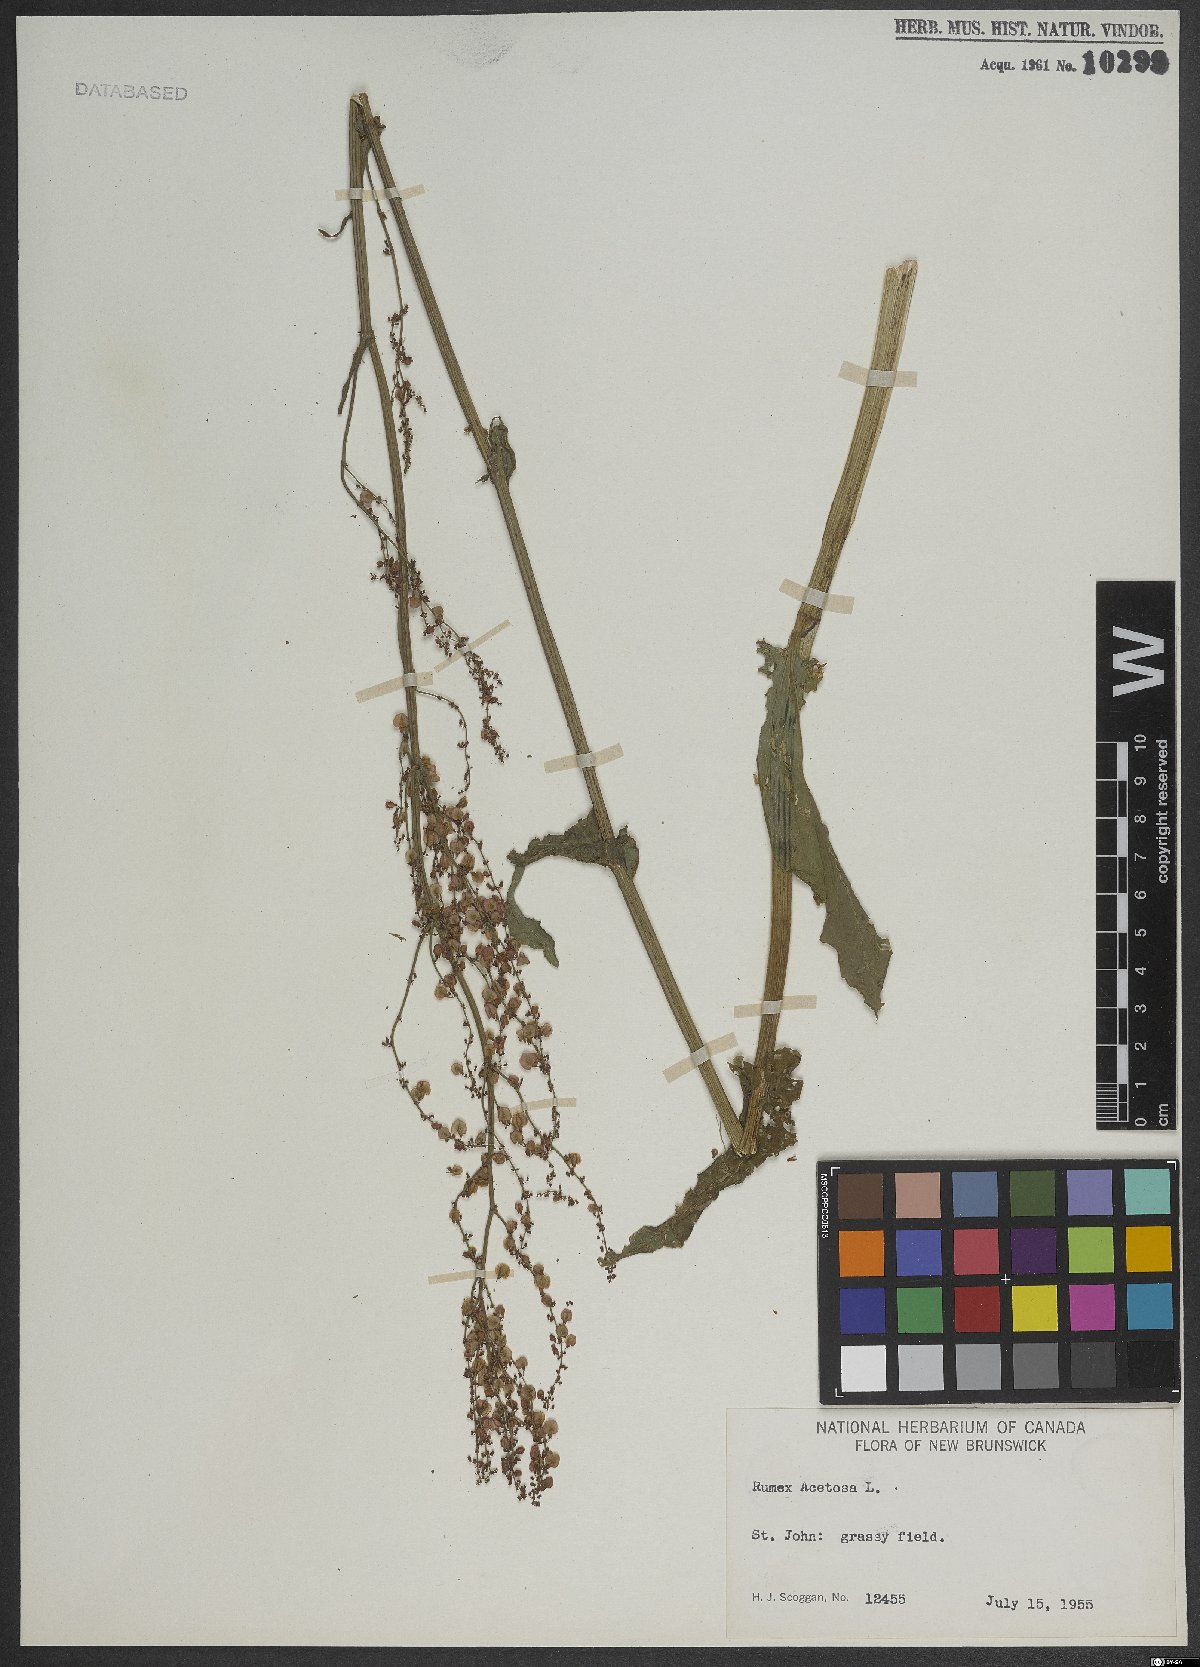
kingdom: Plantae
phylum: Tracheophyta
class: Magnoliopsida
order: Caryophyllales
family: Polygonaceae
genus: Rumex
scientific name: Rumex acetosa
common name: Garden sorrel
